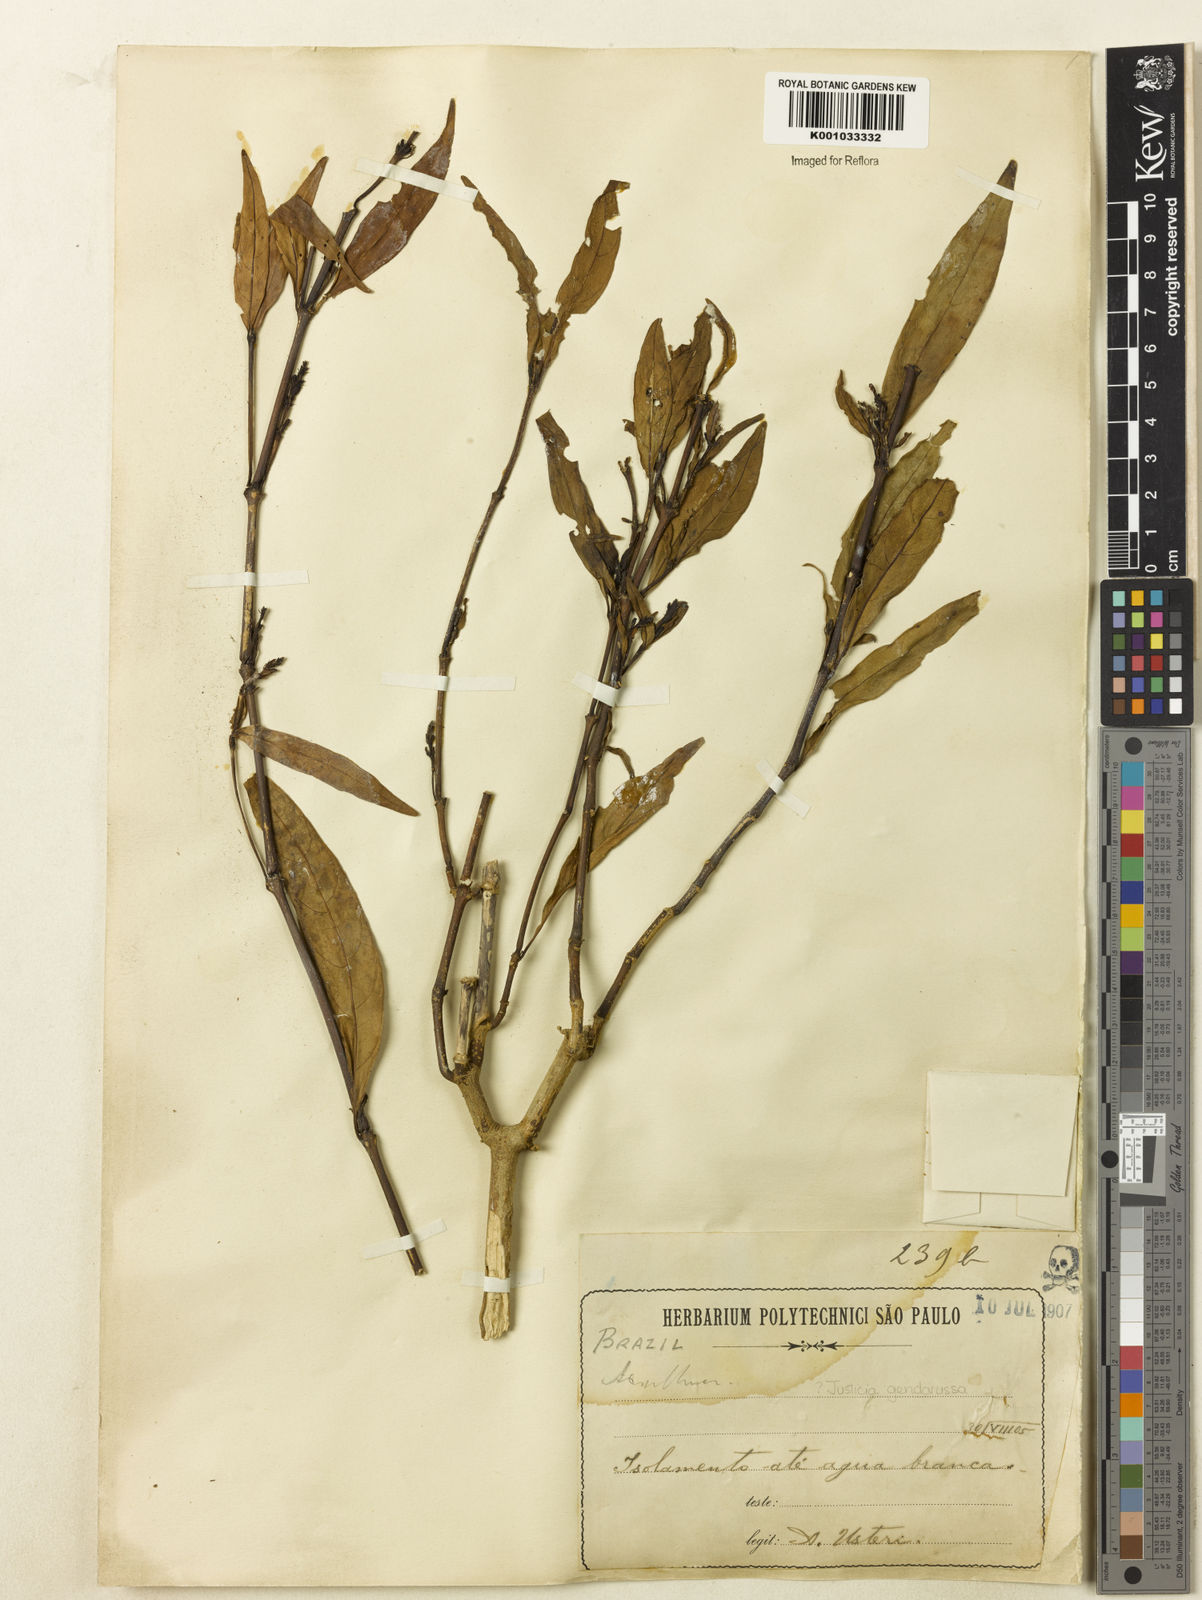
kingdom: Plantae
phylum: Tracheophyta
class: Magnoliopsida
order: Lamiales
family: Acanthaceae
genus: Justicia
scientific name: Justicia gendarussa
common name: Warer willow
